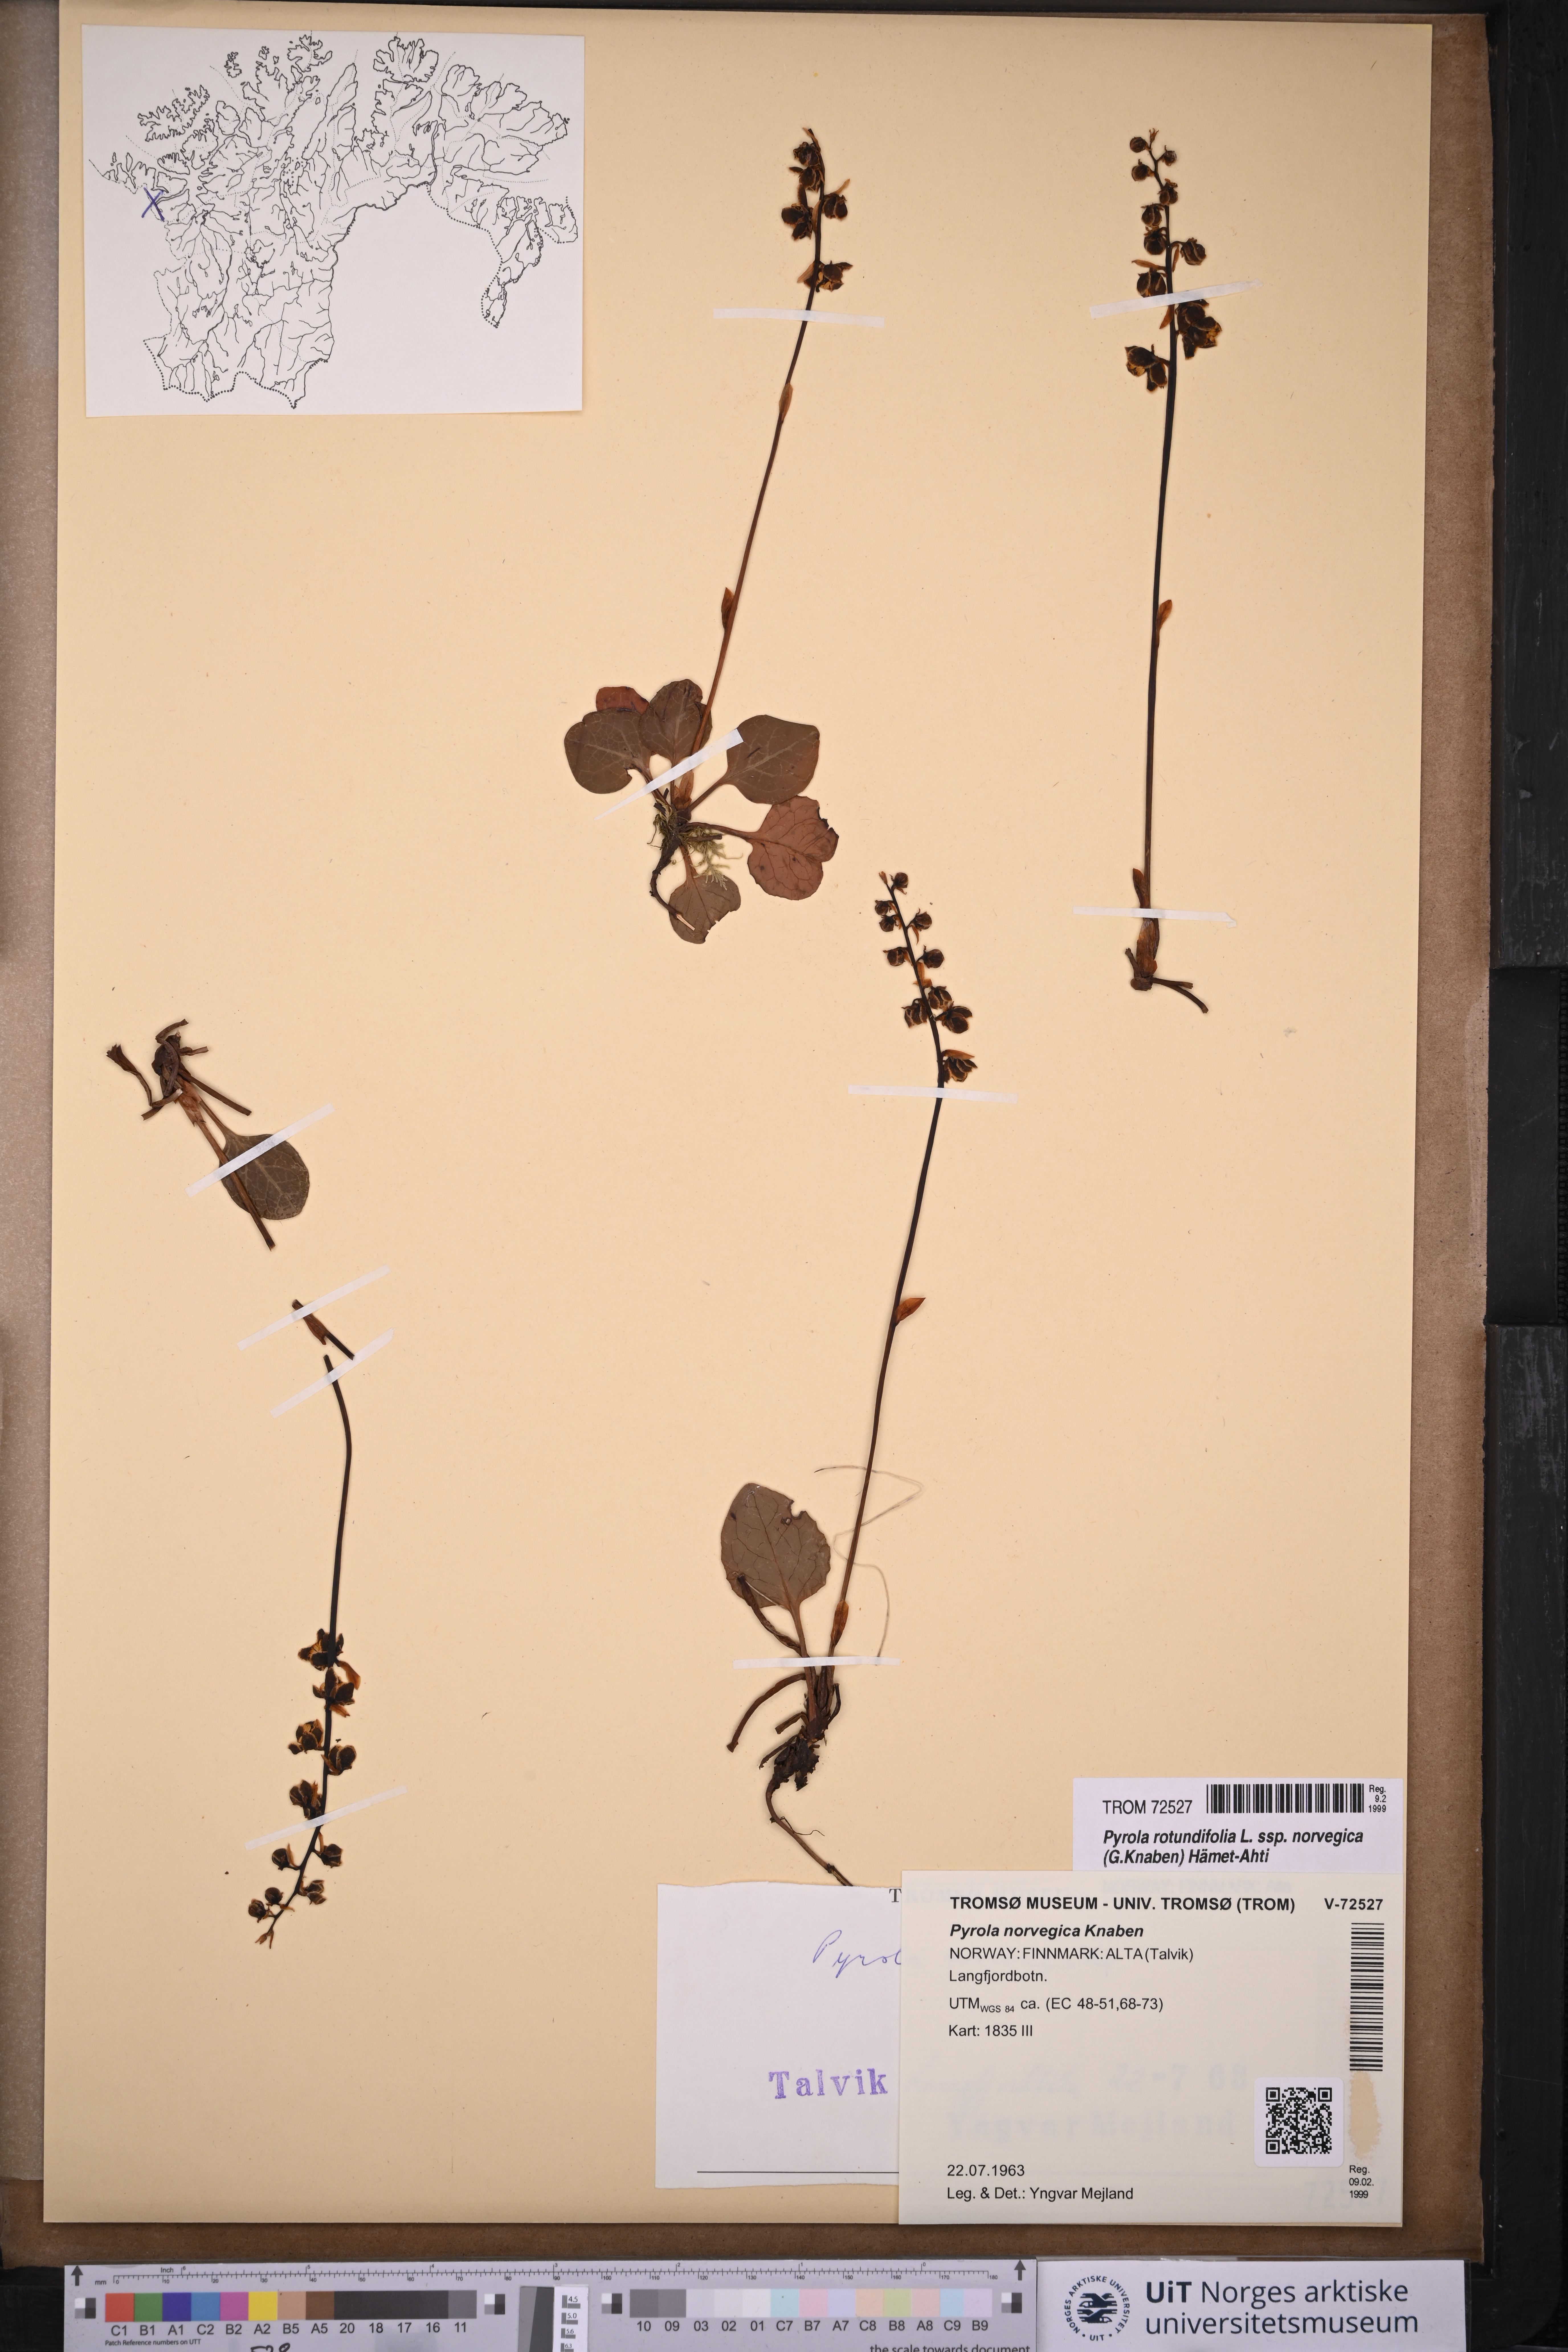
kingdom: Plantae
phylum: Tracheophyta
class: Magnoliopsida
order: Ericales
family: Ericaceae
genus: Pyrola
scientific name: Pyrola rotundifolia
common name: Round-leaved wintergreen
